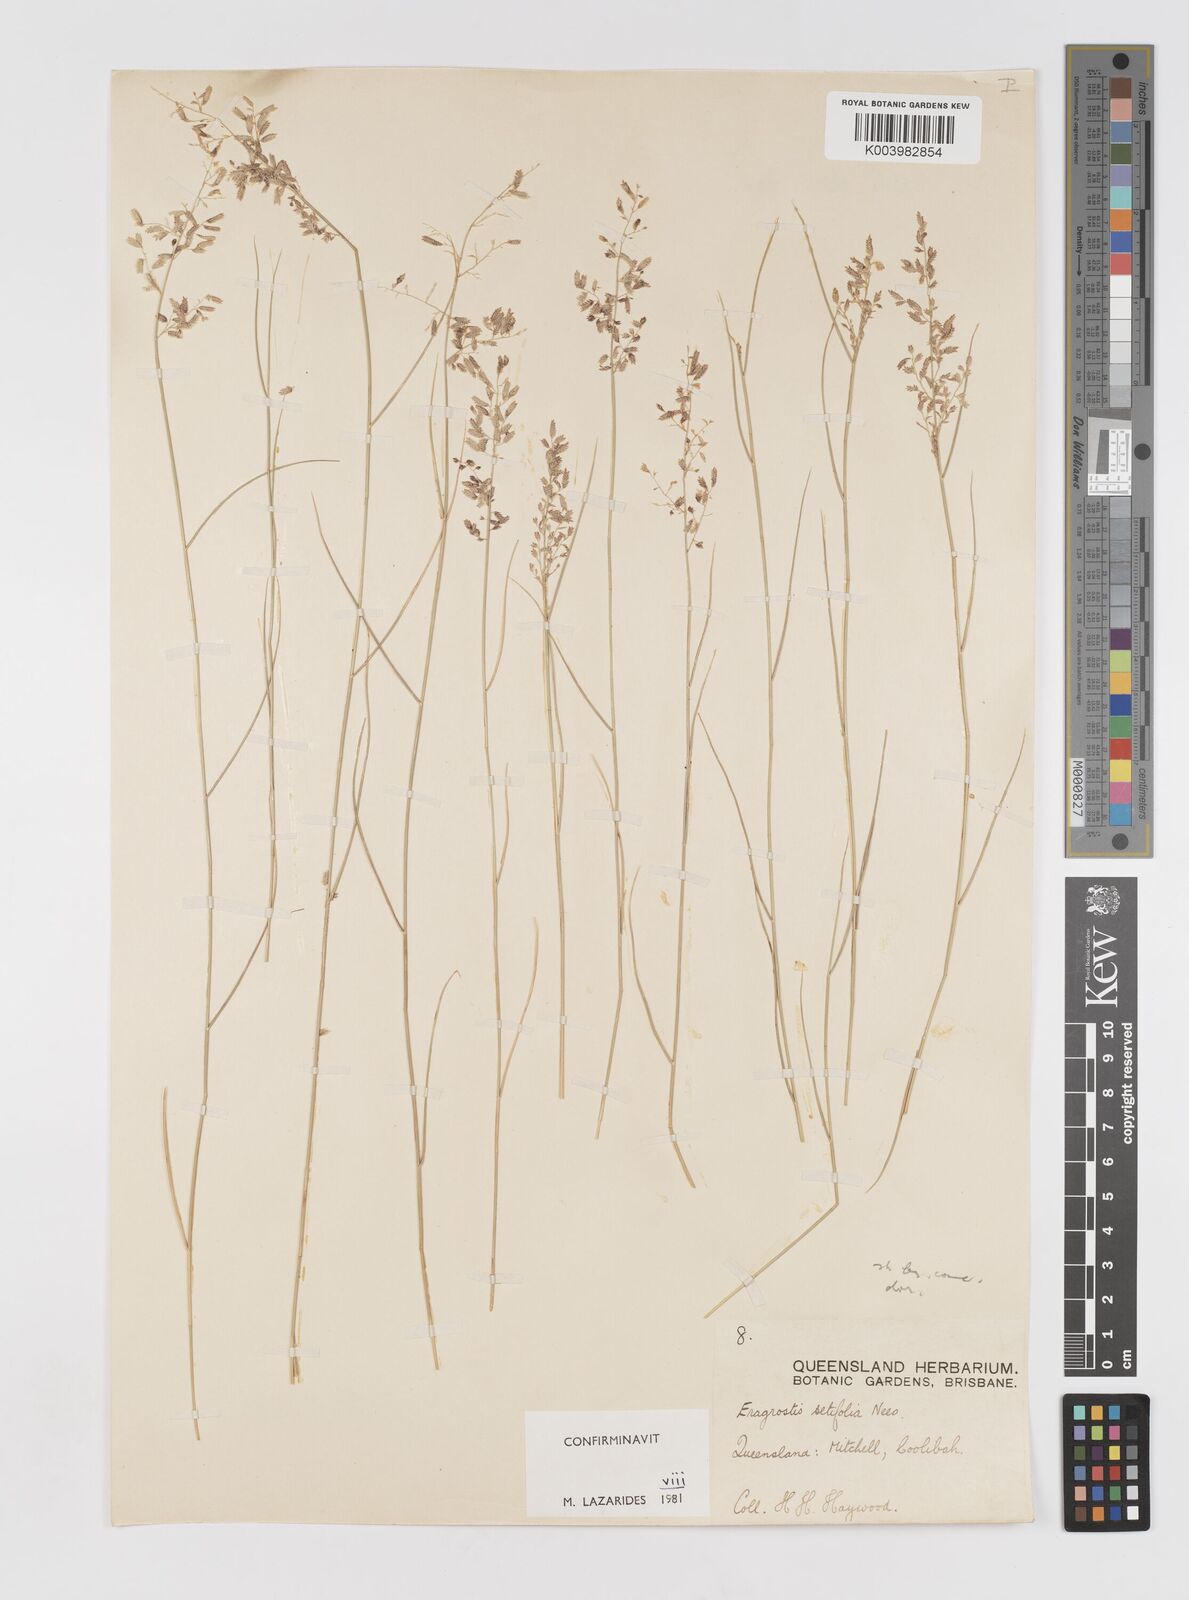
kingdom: Plantae
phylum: Tracheophyta
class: Liliopsida
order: Poales
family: Poaceae
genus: Eragrostis
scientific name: Eragrostis setifolia
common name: Bristleleaf lovegrass
